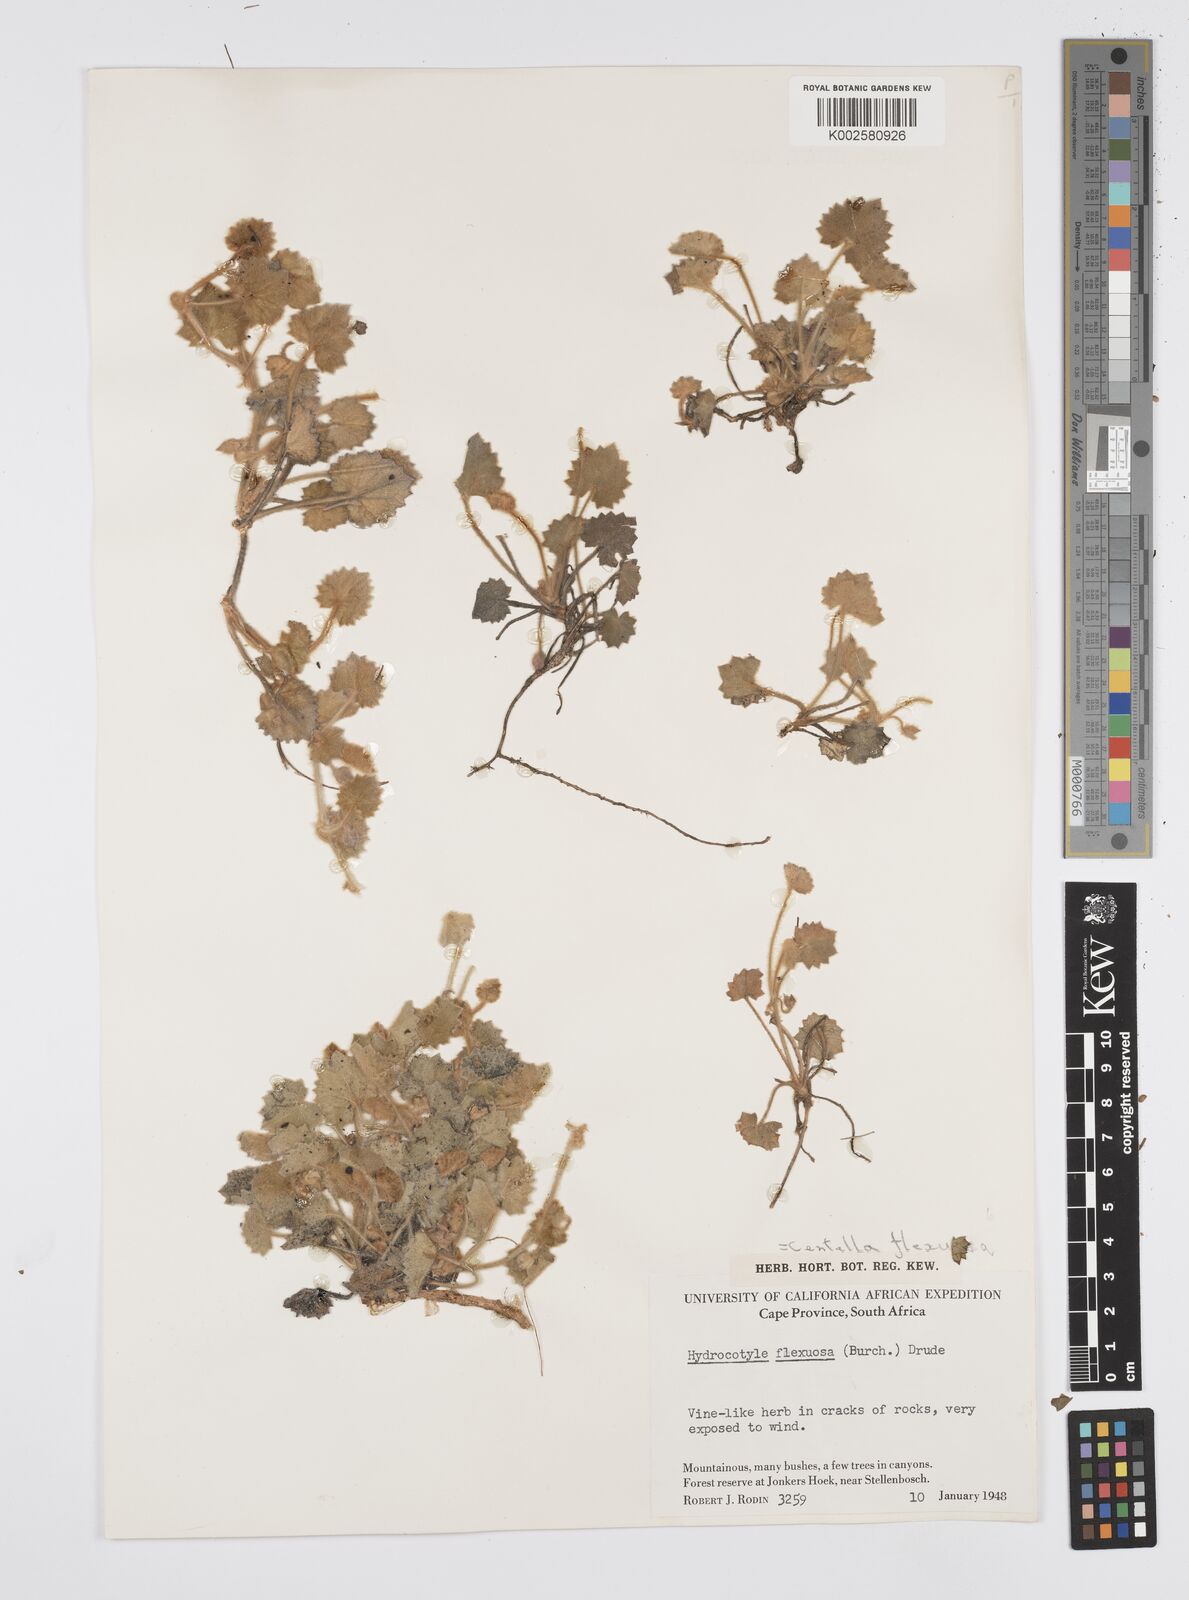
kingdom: Plantae
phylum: Tracheophyta
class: Magnoliopsida
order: Apiales
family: Apiaceae
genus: Centella
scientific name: Centella flexuosa
